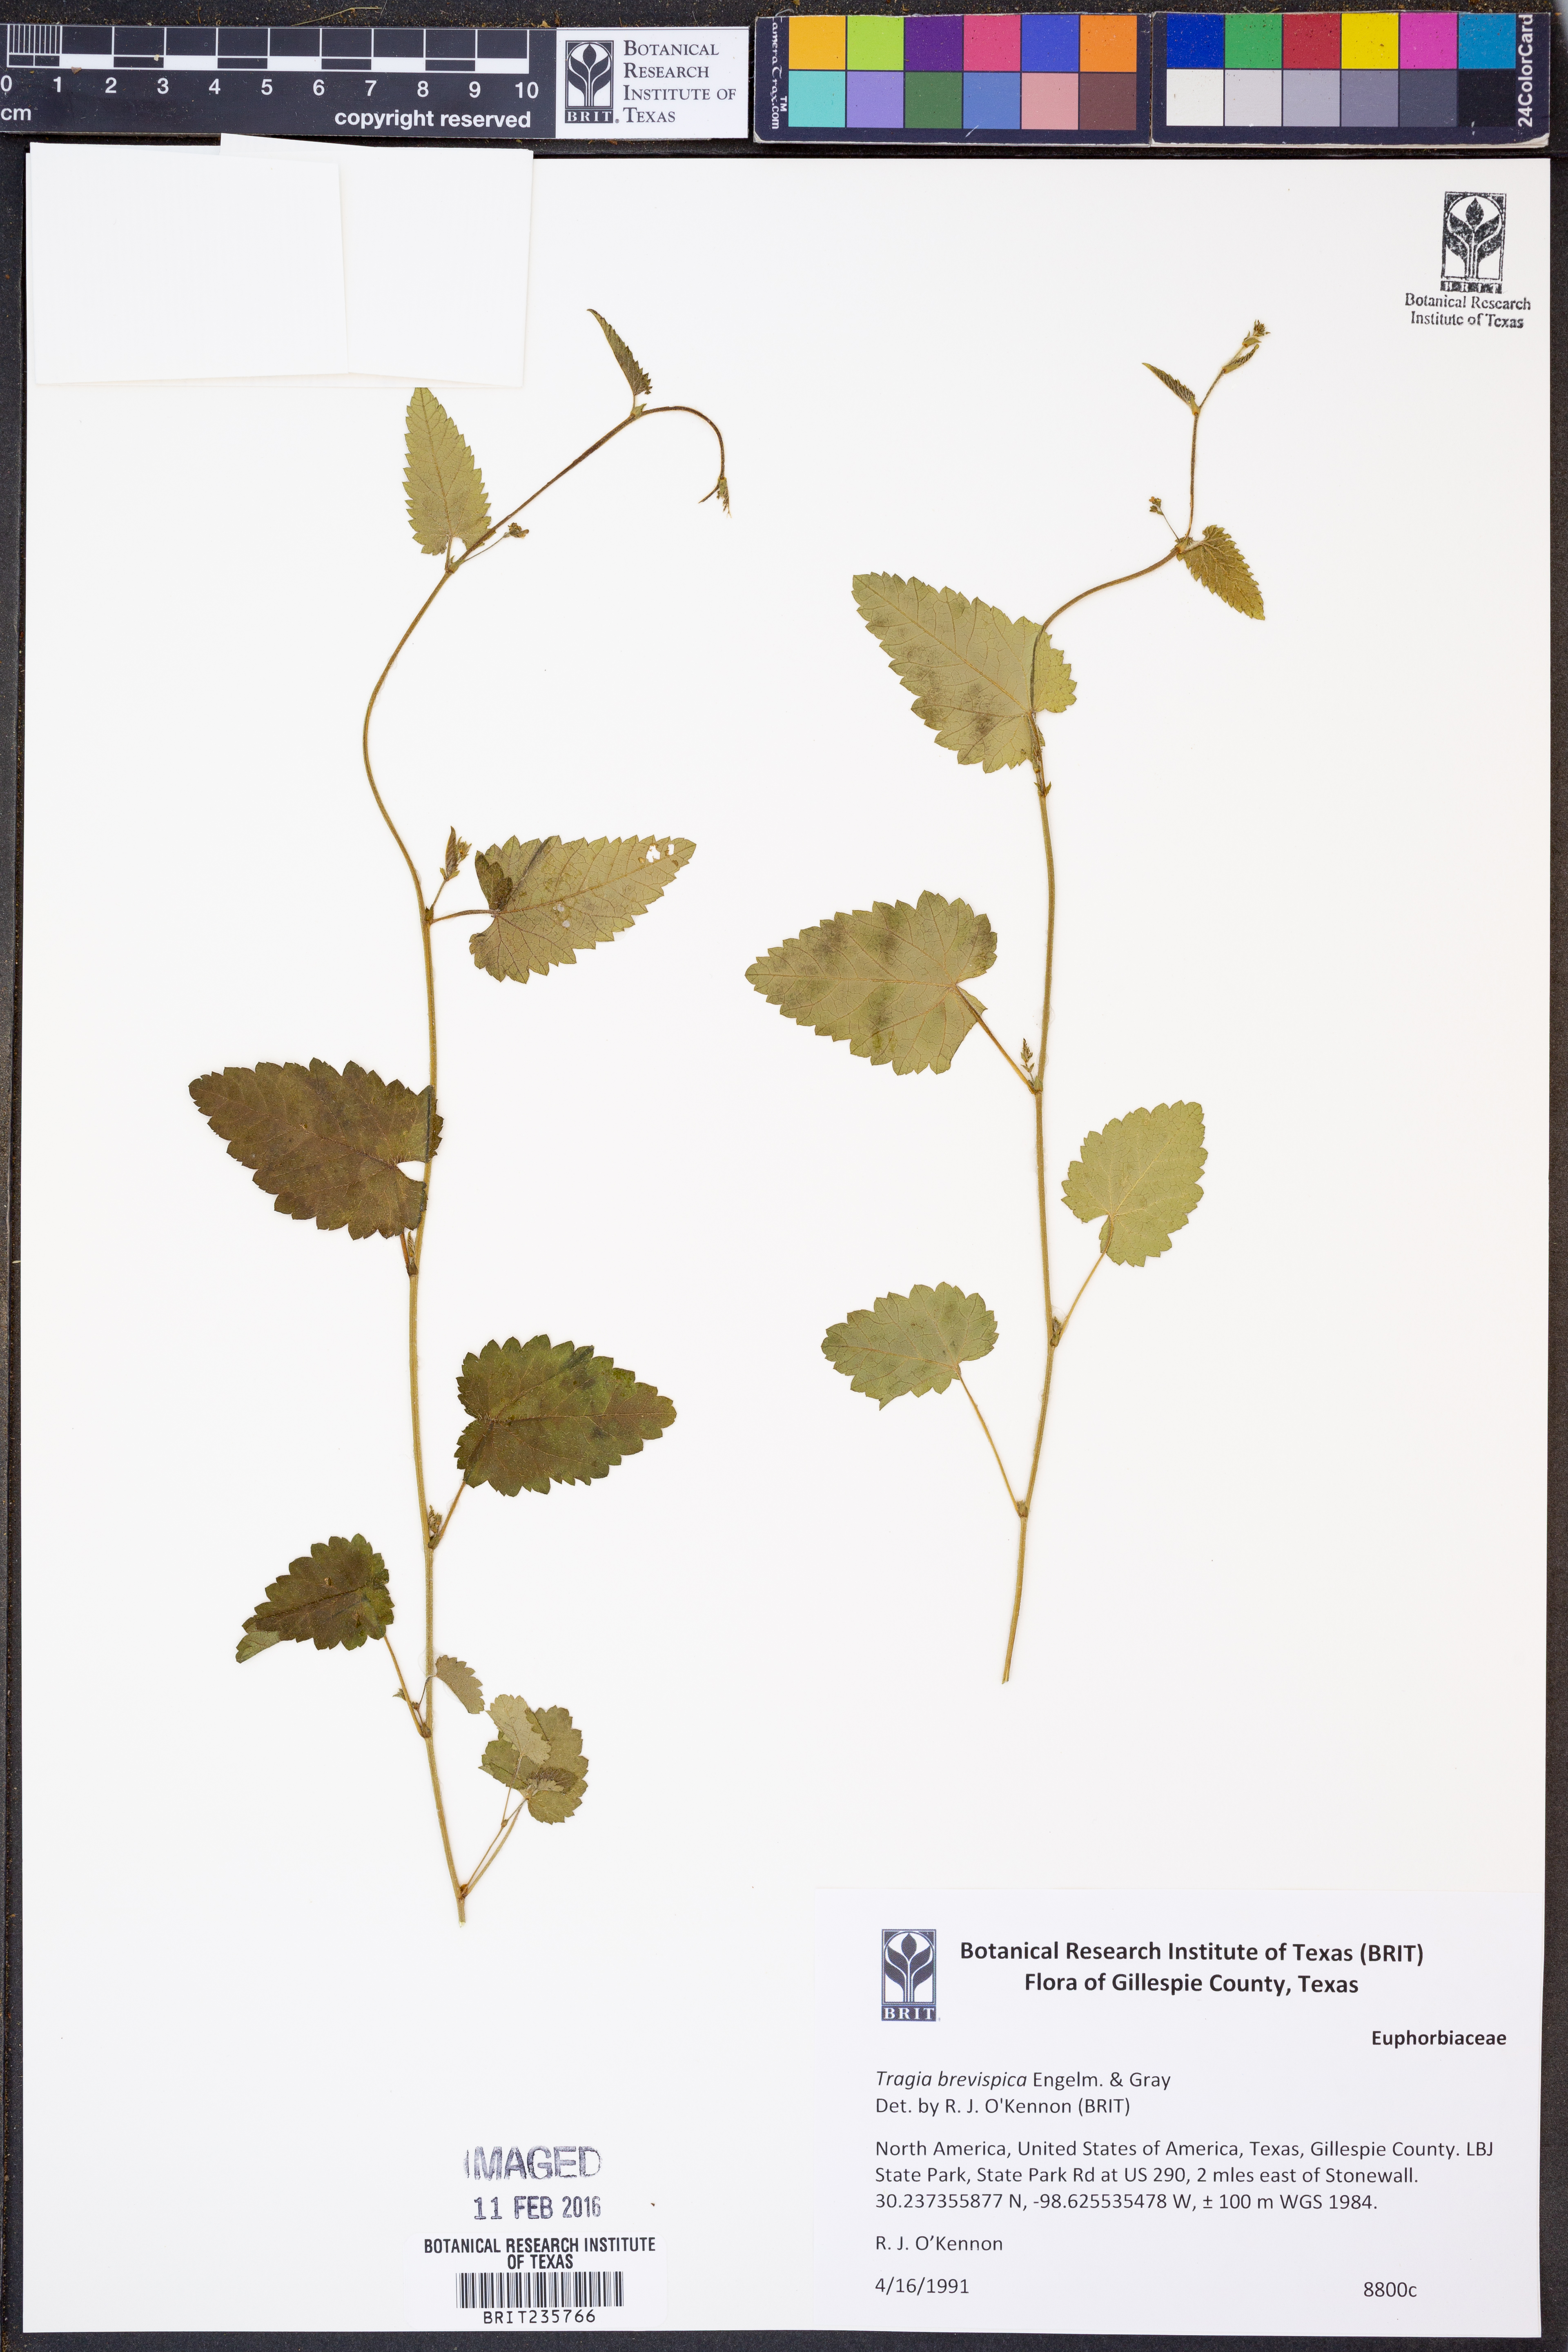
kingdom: Plantae
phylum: Tracheophyta
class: Magnoliopsida
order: Malpighiales
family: Euphorbiaceae
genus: Tragia
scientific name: Tragia brevispica
